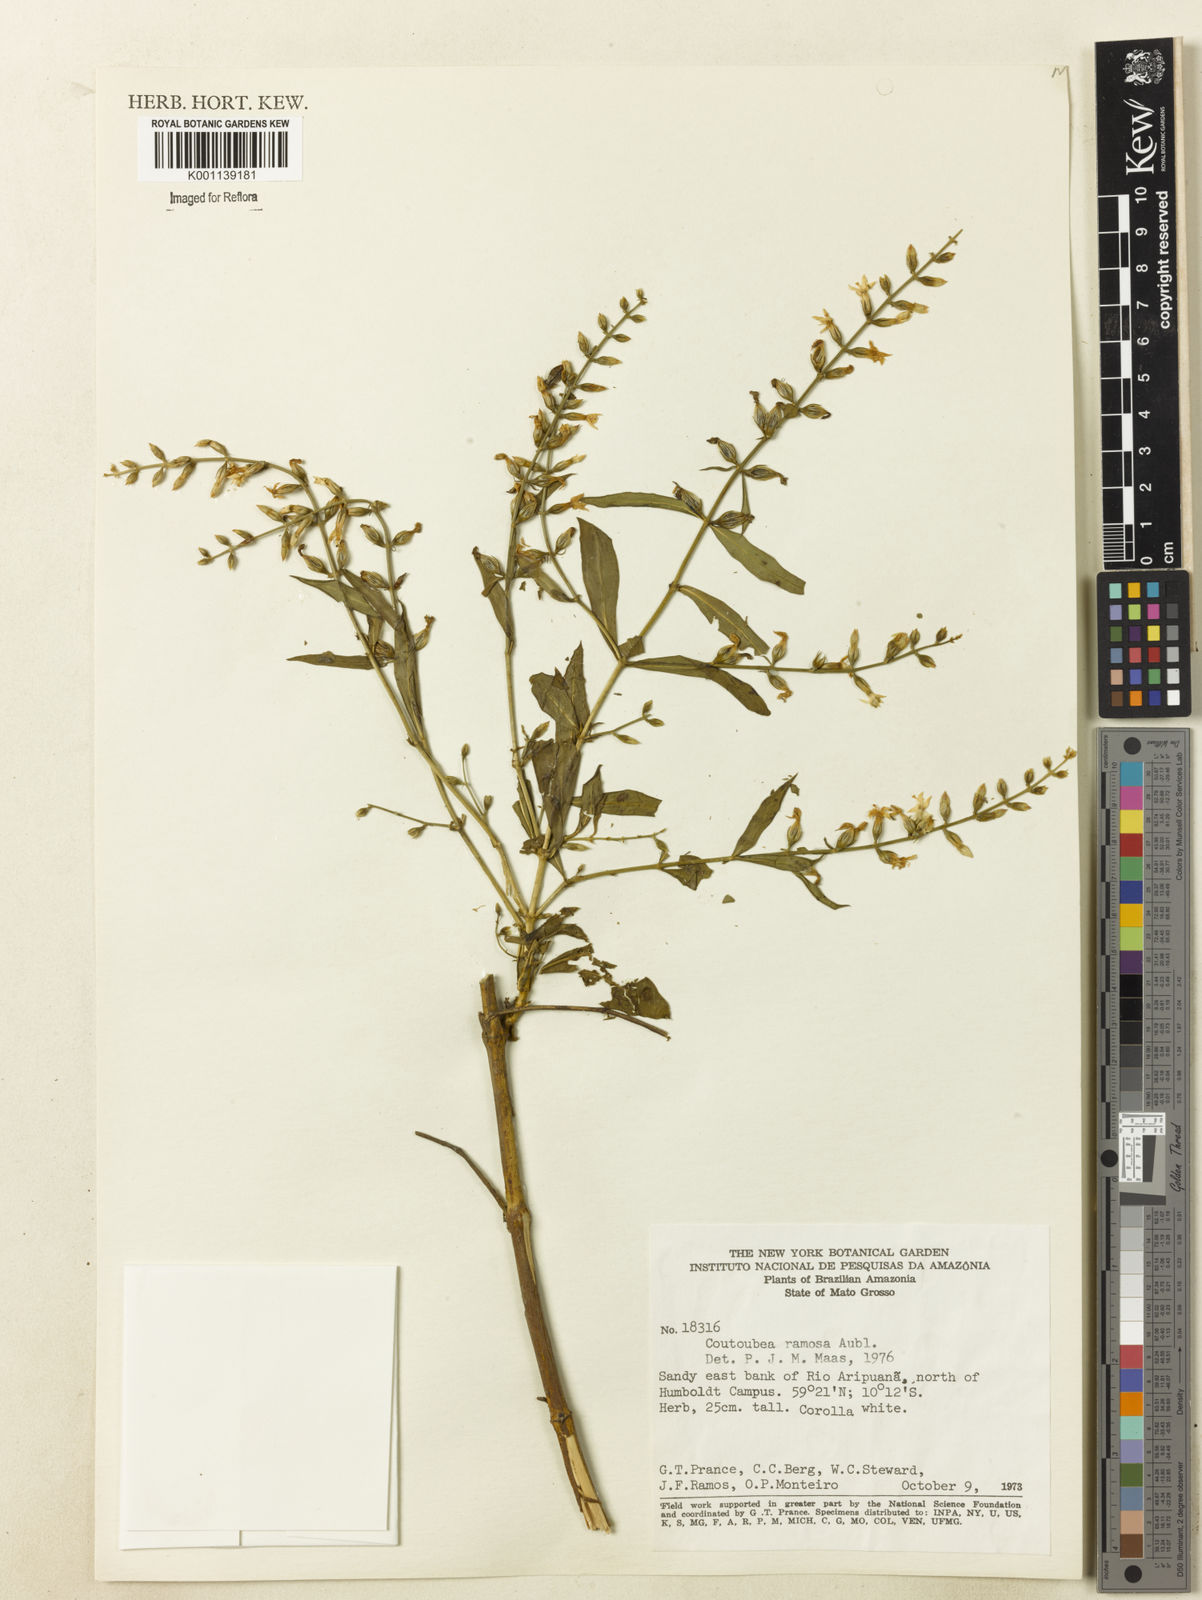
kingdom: Plantae
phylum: Tracheophyta
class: Magnoliopsida
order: Gentianales
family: Gentianaceae
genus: Coutoubea
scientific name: Coutoubea ramosa
